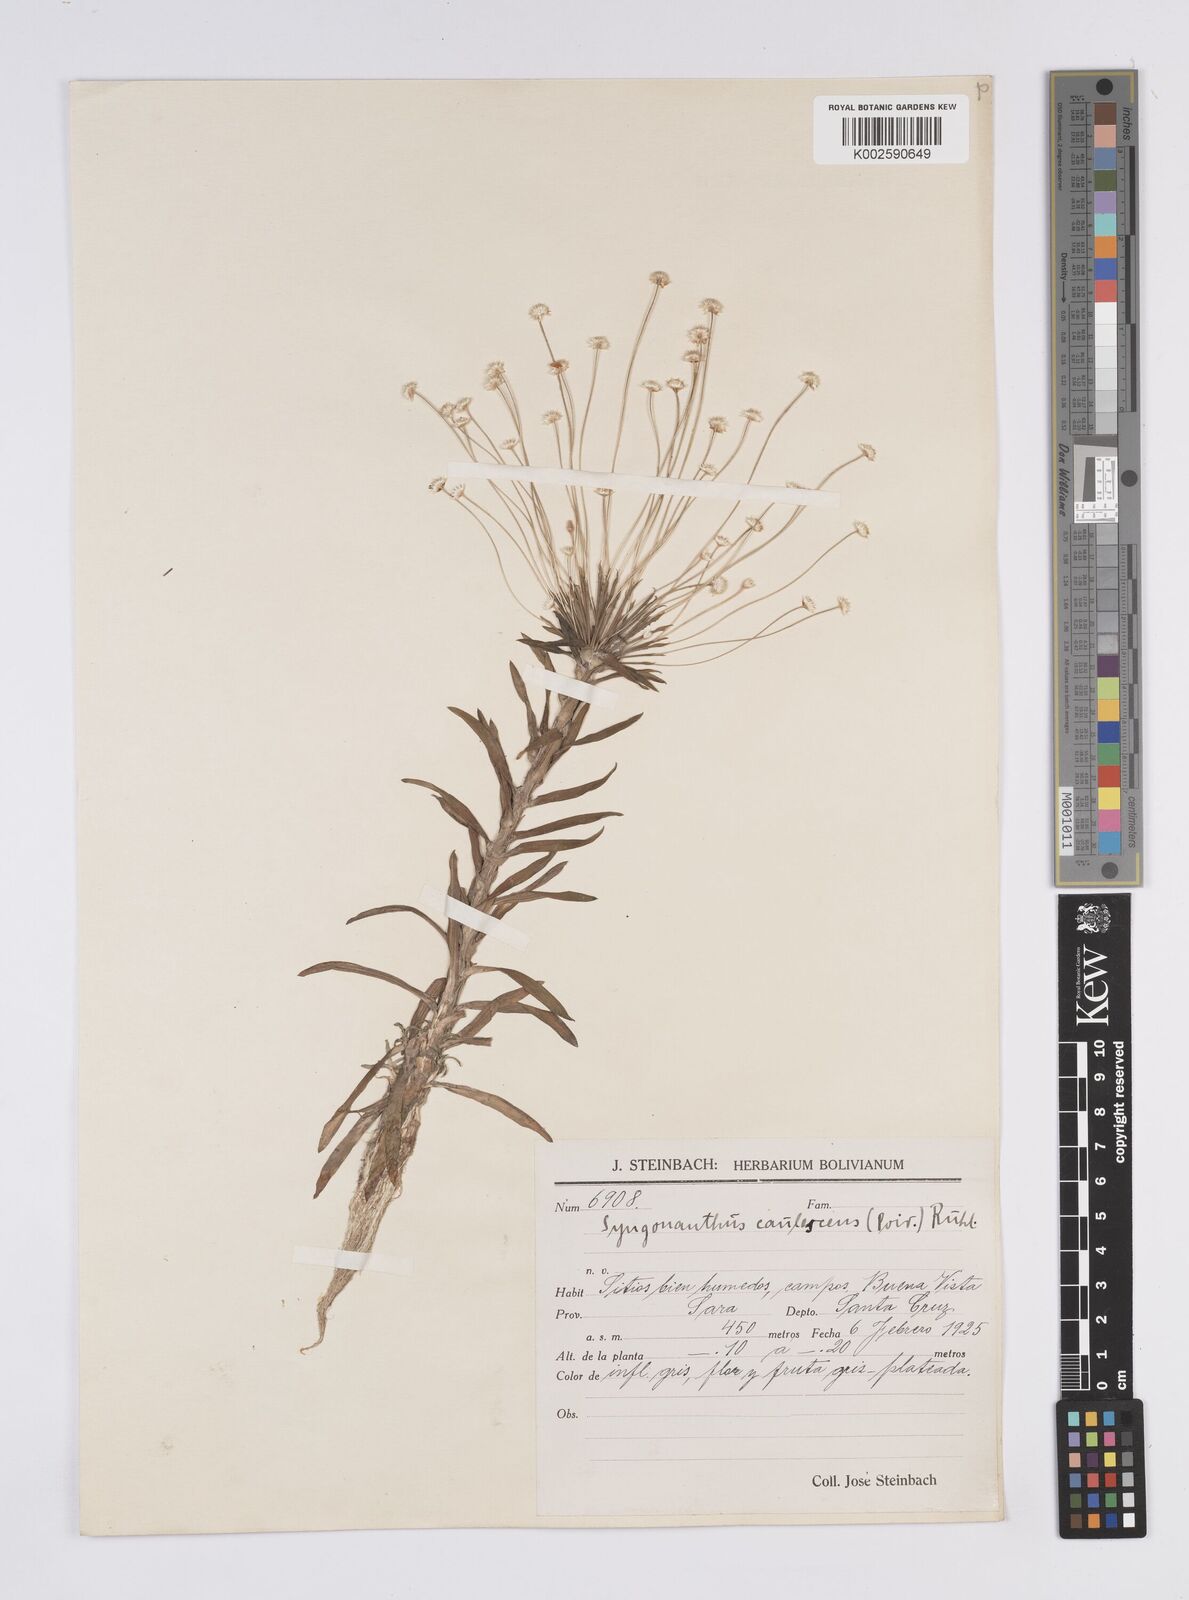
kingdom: Plantae
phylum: Tracheophyta
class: Liliopsida
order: Poales
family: Eriocaulaceae
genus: Syngonanthus
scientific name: Syngonanthus caulescens
